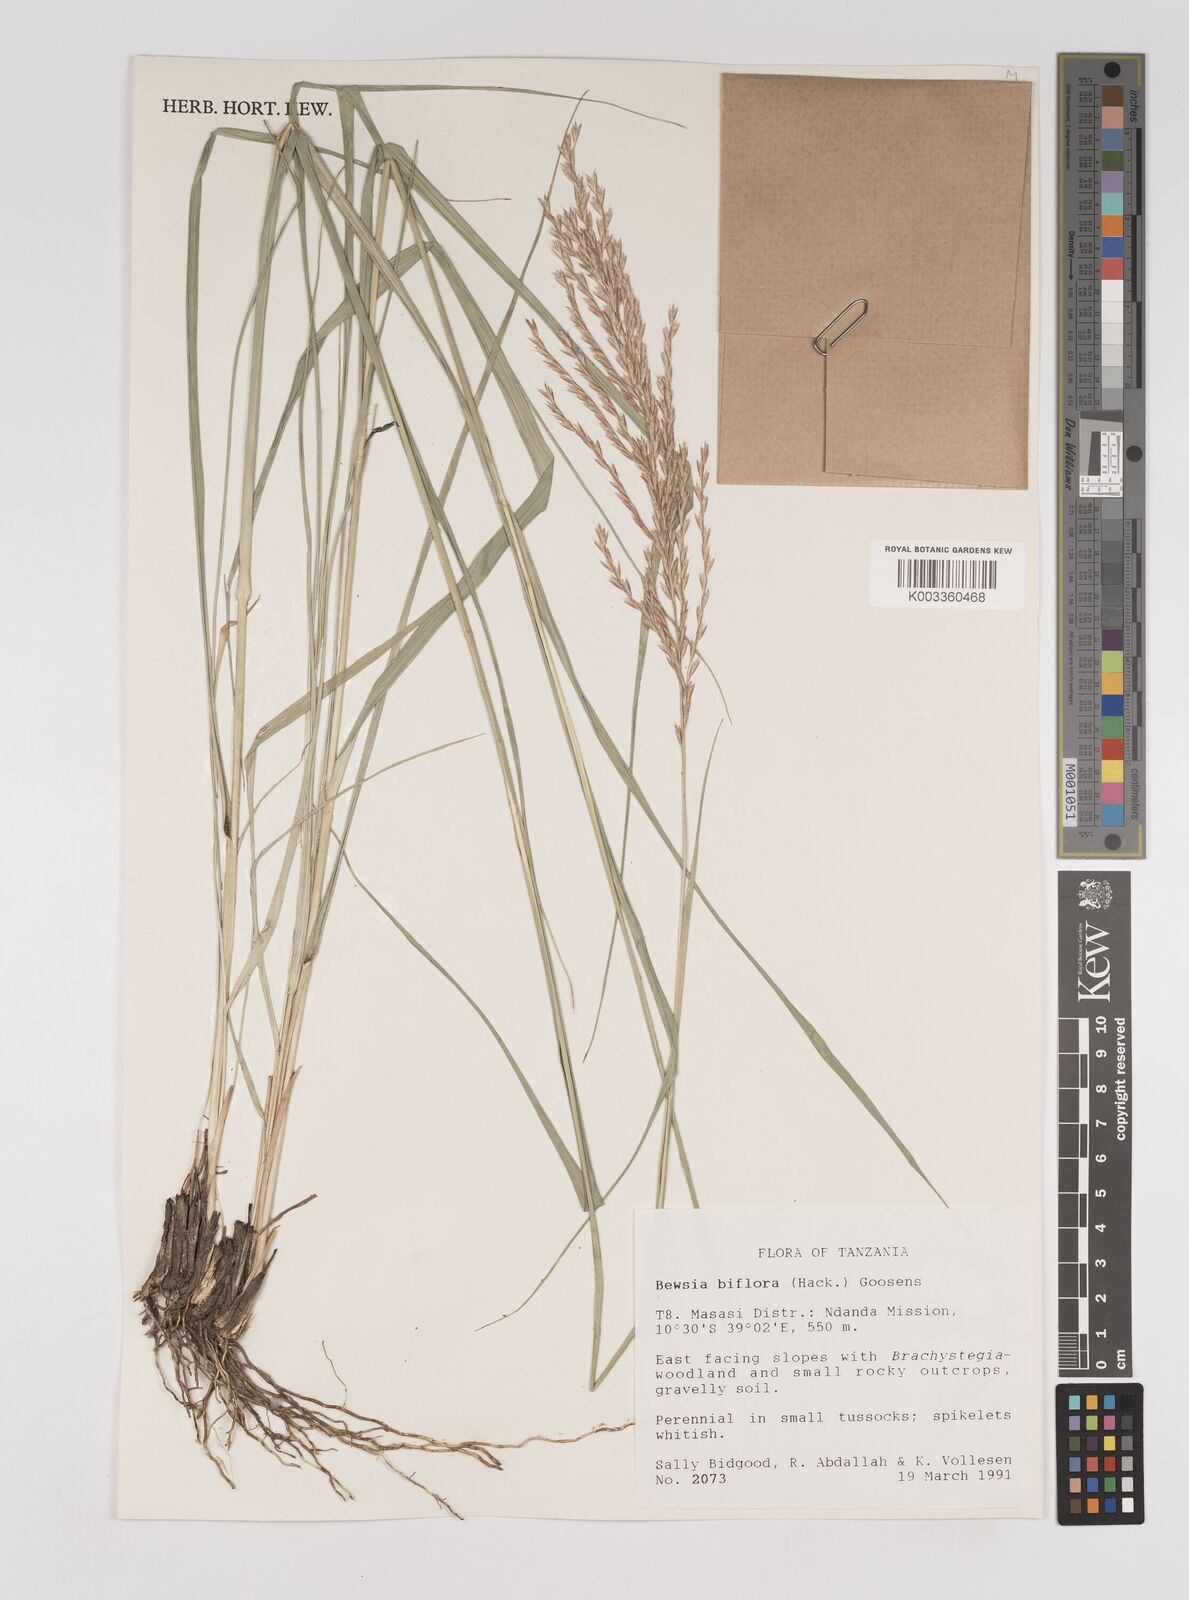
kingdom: Plantae
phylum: Tracheophyta
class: Liliopsida
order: Poales
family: Poaceae
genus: Bewsia
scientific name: Bewsia biflora
